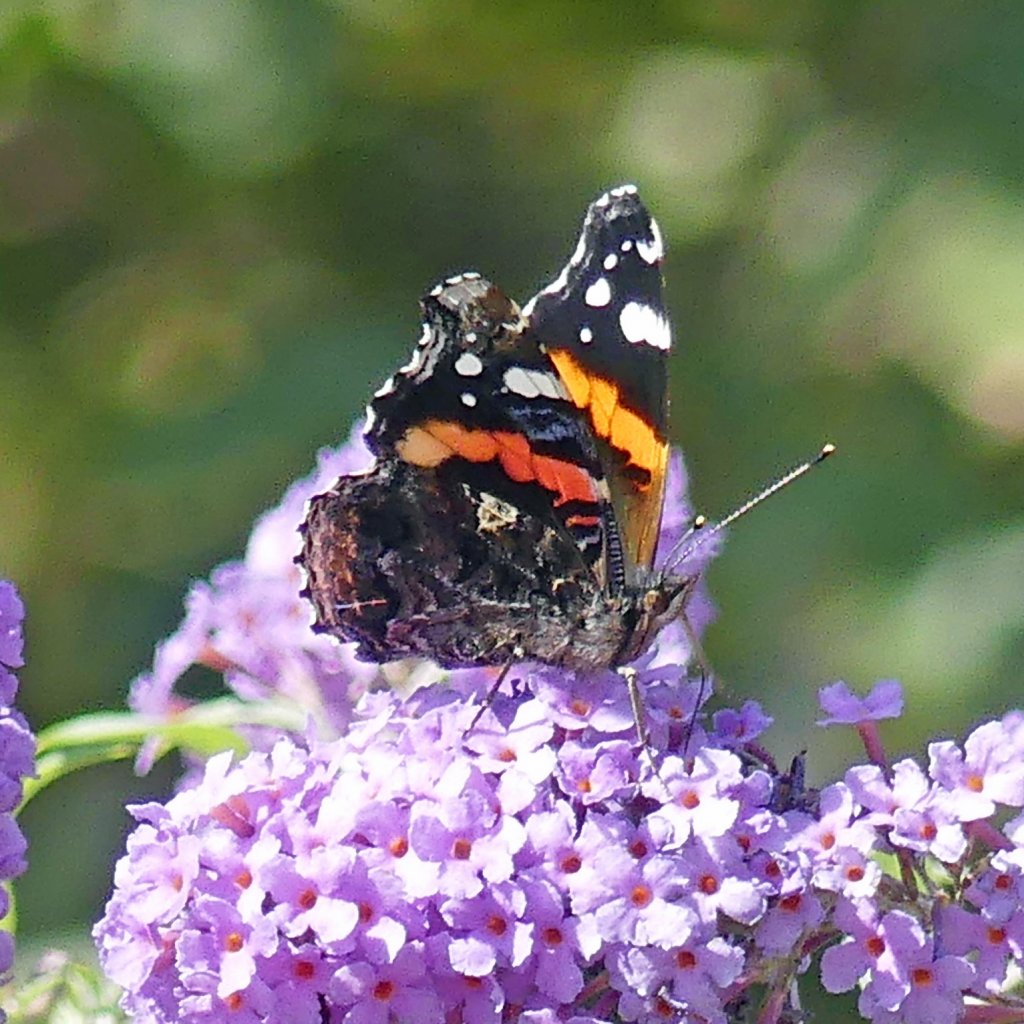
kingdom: Animalia
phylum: Arthropoda
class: Insecta
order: Lepidoptera
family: Nymphalidae
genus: Vanessa
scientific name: Vanessa atalanta
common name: Red Admiral
